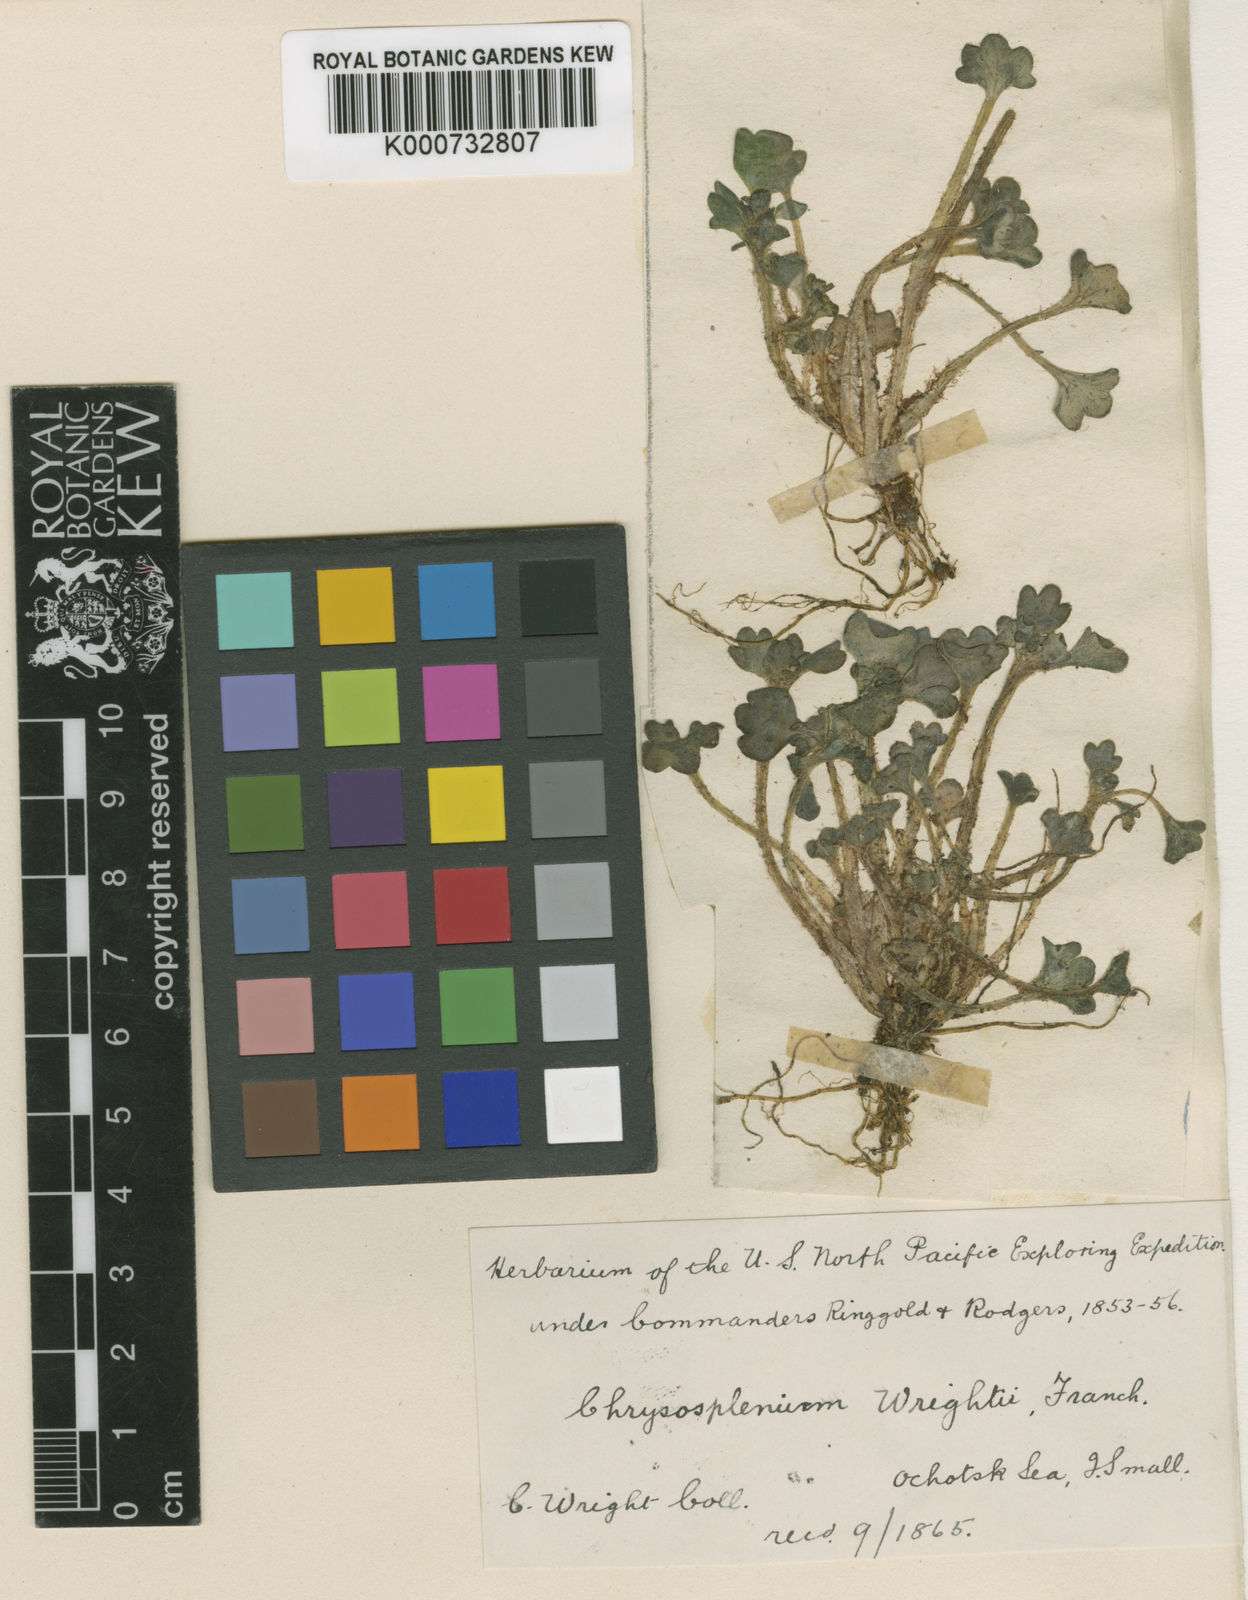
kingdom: Plantae
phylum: Tracheophyta
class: Magnoliopsida
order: Saxifragales
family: Saxifragaceae
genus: Chrysosplenium
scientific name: Chrysosplenium wrightii
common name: Wright's golden carpet
